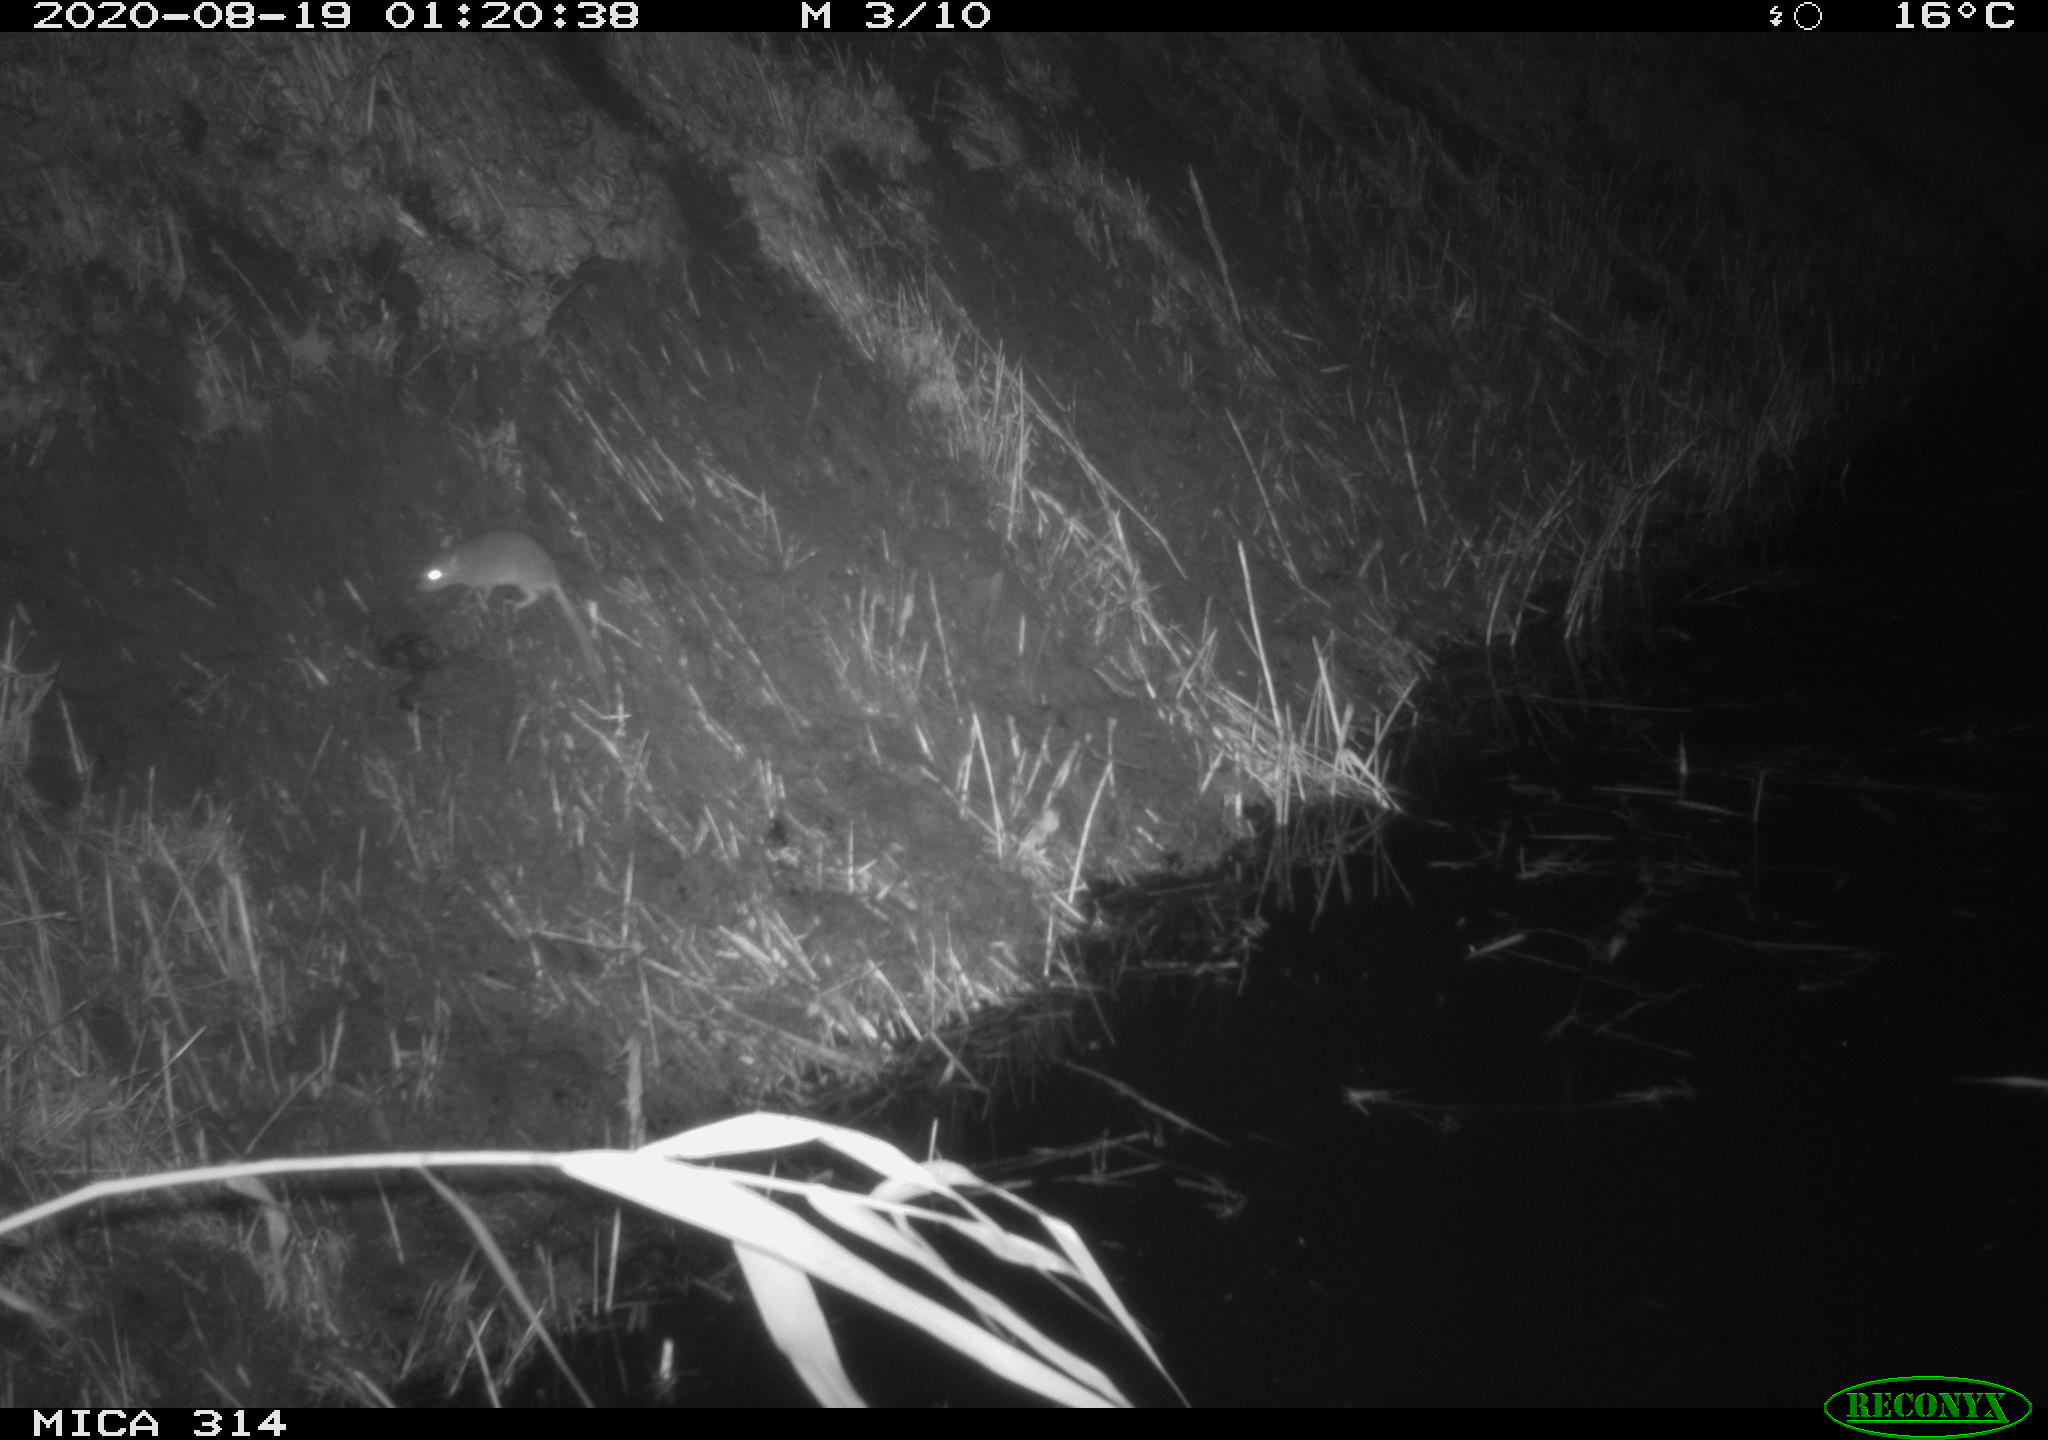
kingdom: Animalia
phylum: Chordata
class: Mammalia
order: Rodentia
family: Muridae
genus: Rattus
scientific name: Rattus norvegicus
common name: Brown rat
